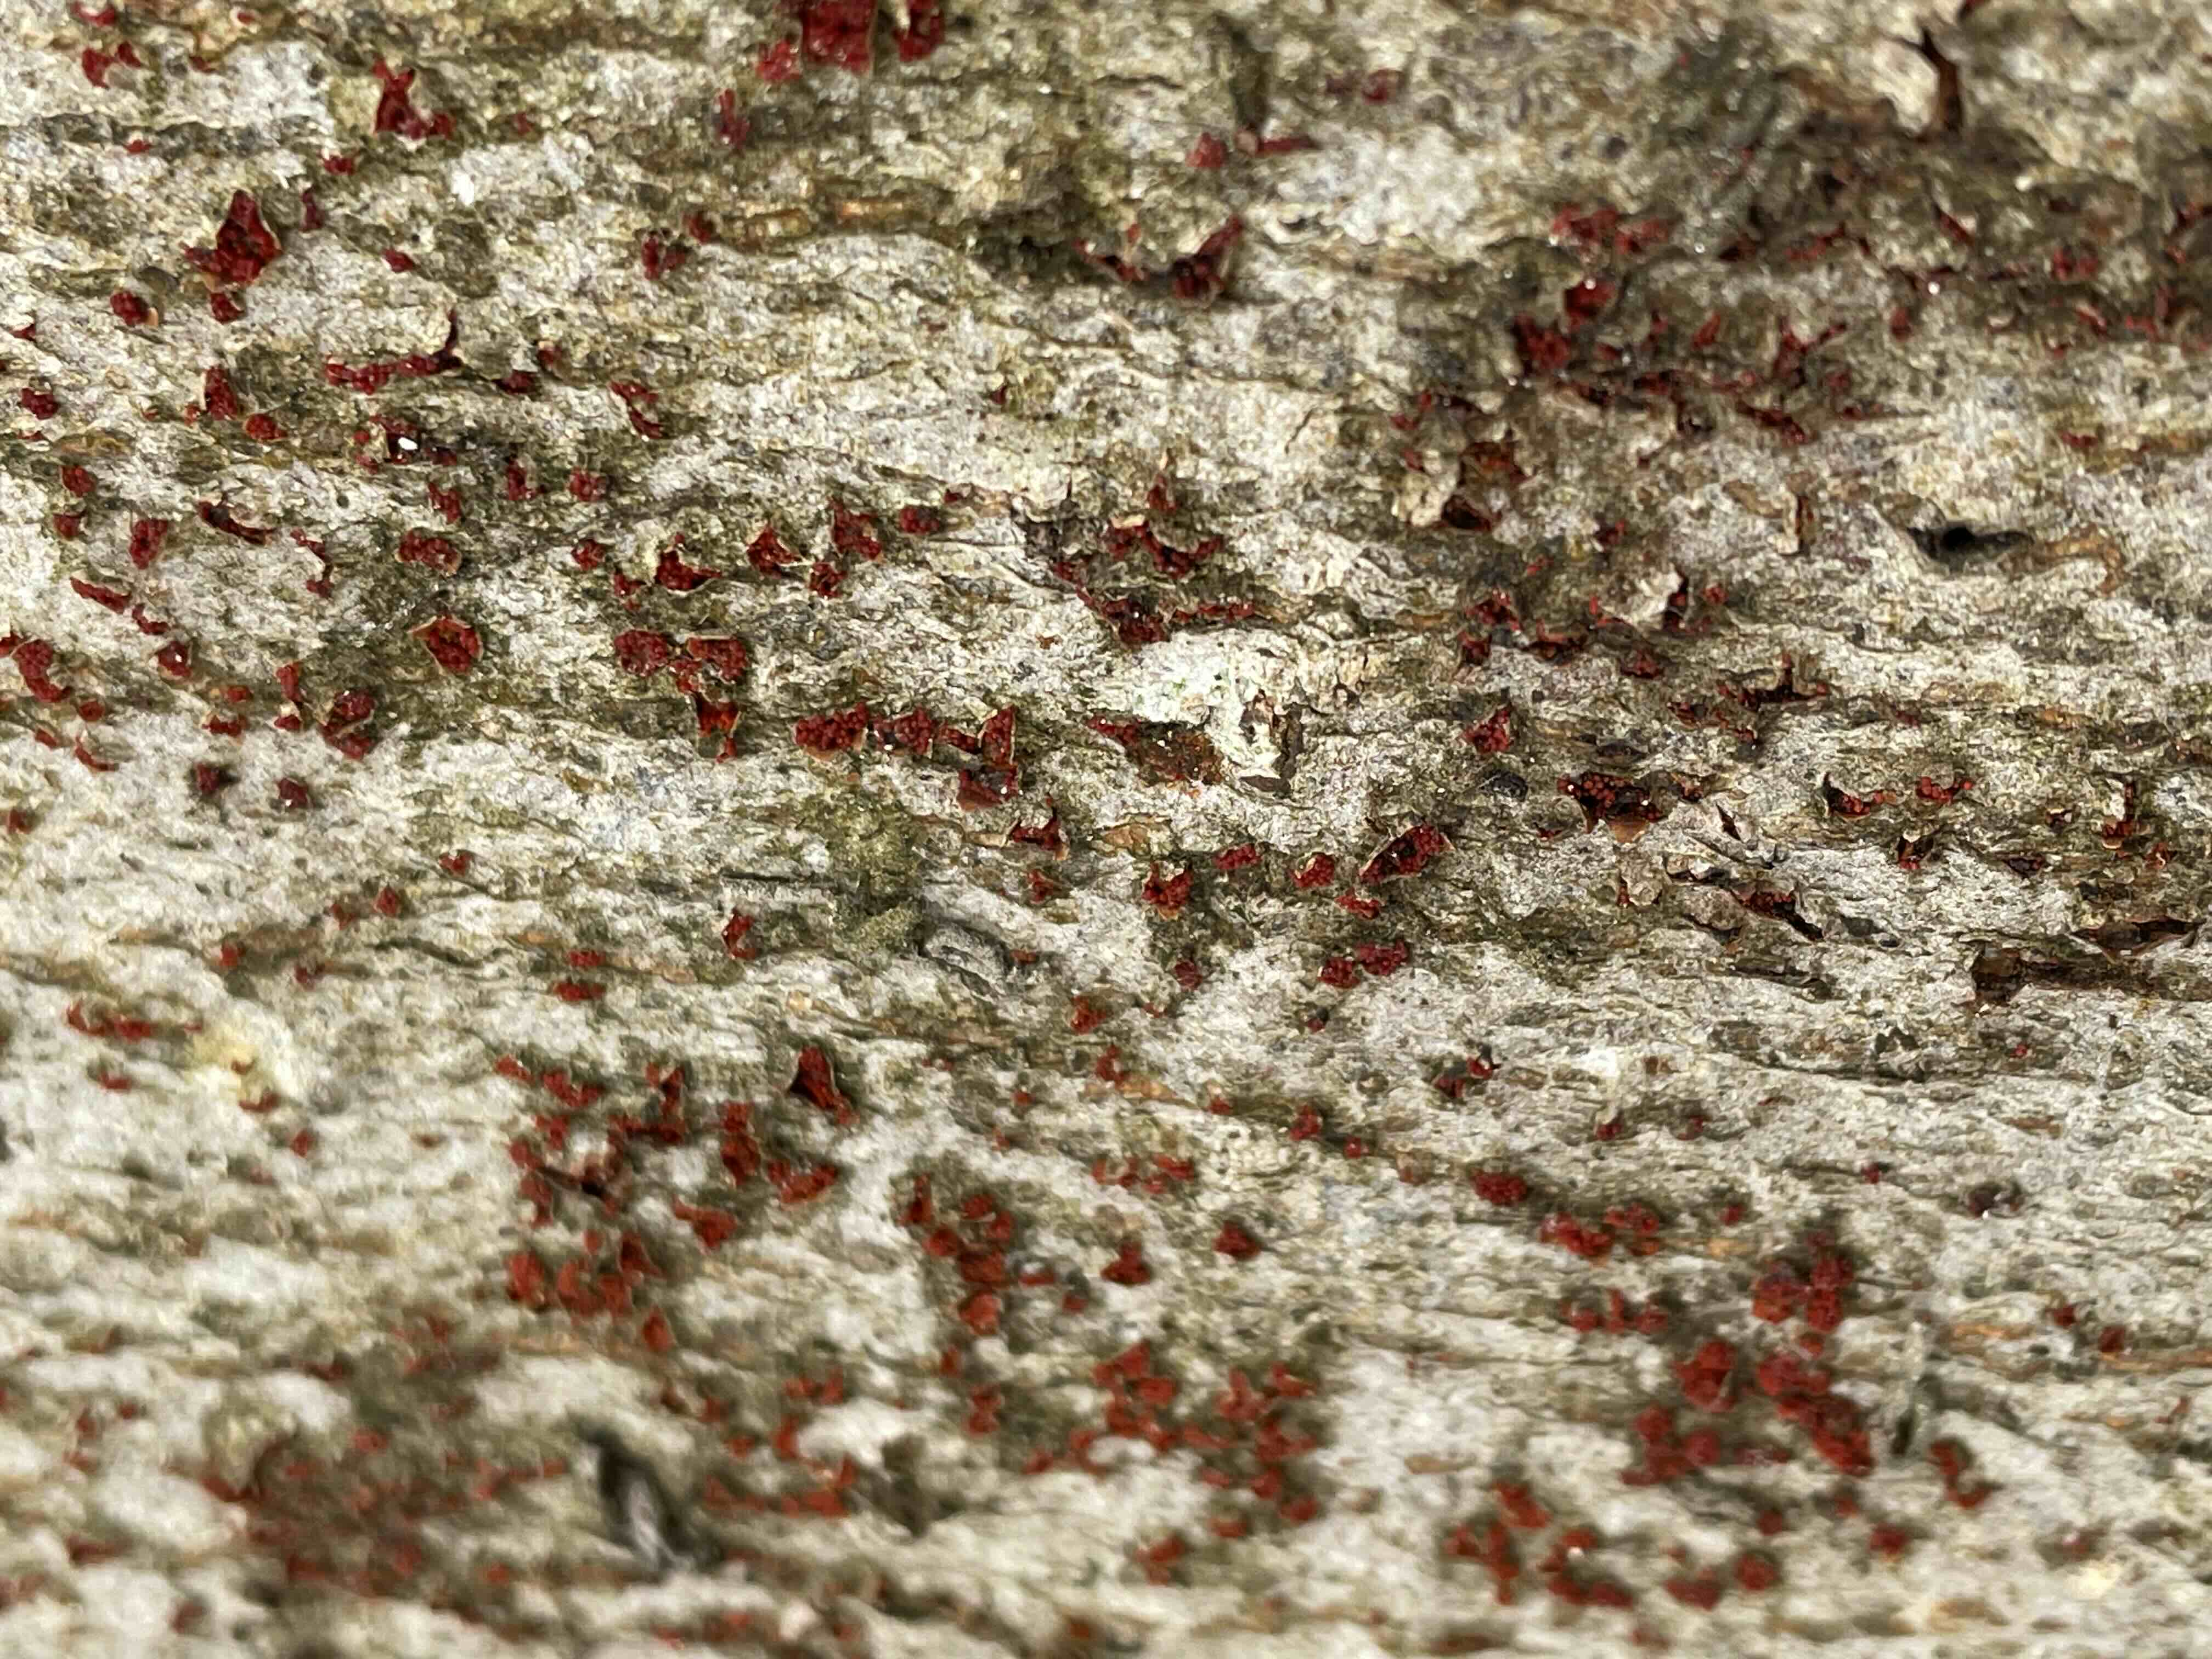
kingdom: Fungi
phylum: Ascomycota
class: Sordariomycetes
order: Hypocreales
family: Nectriaceae
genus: Neonectria
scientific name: Neonectria coccinea
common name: bøgebark-cinnobersvamp
